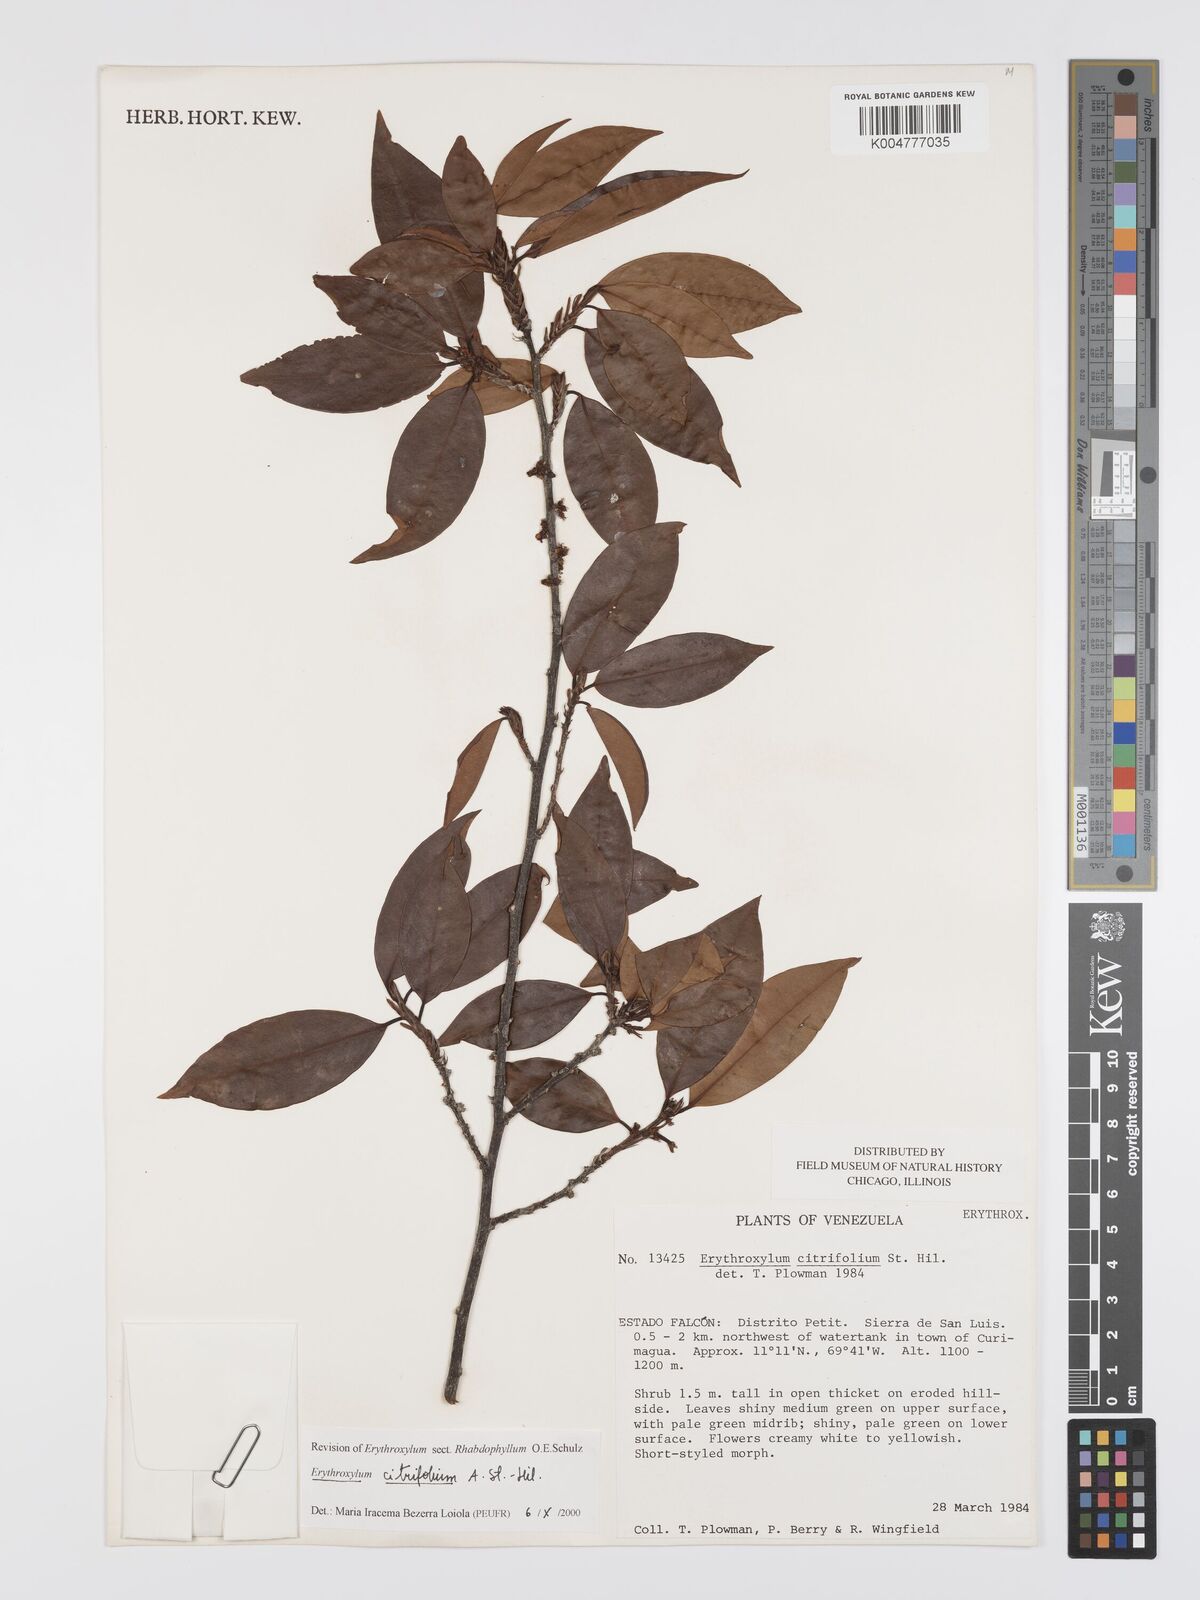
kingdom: Plantae
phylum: Tracheophyta
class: Magnoliopsida
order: Malpighiales
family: Erythroxylaceae
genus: Erythroxylum
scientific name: Erythroxylum citrifolium
